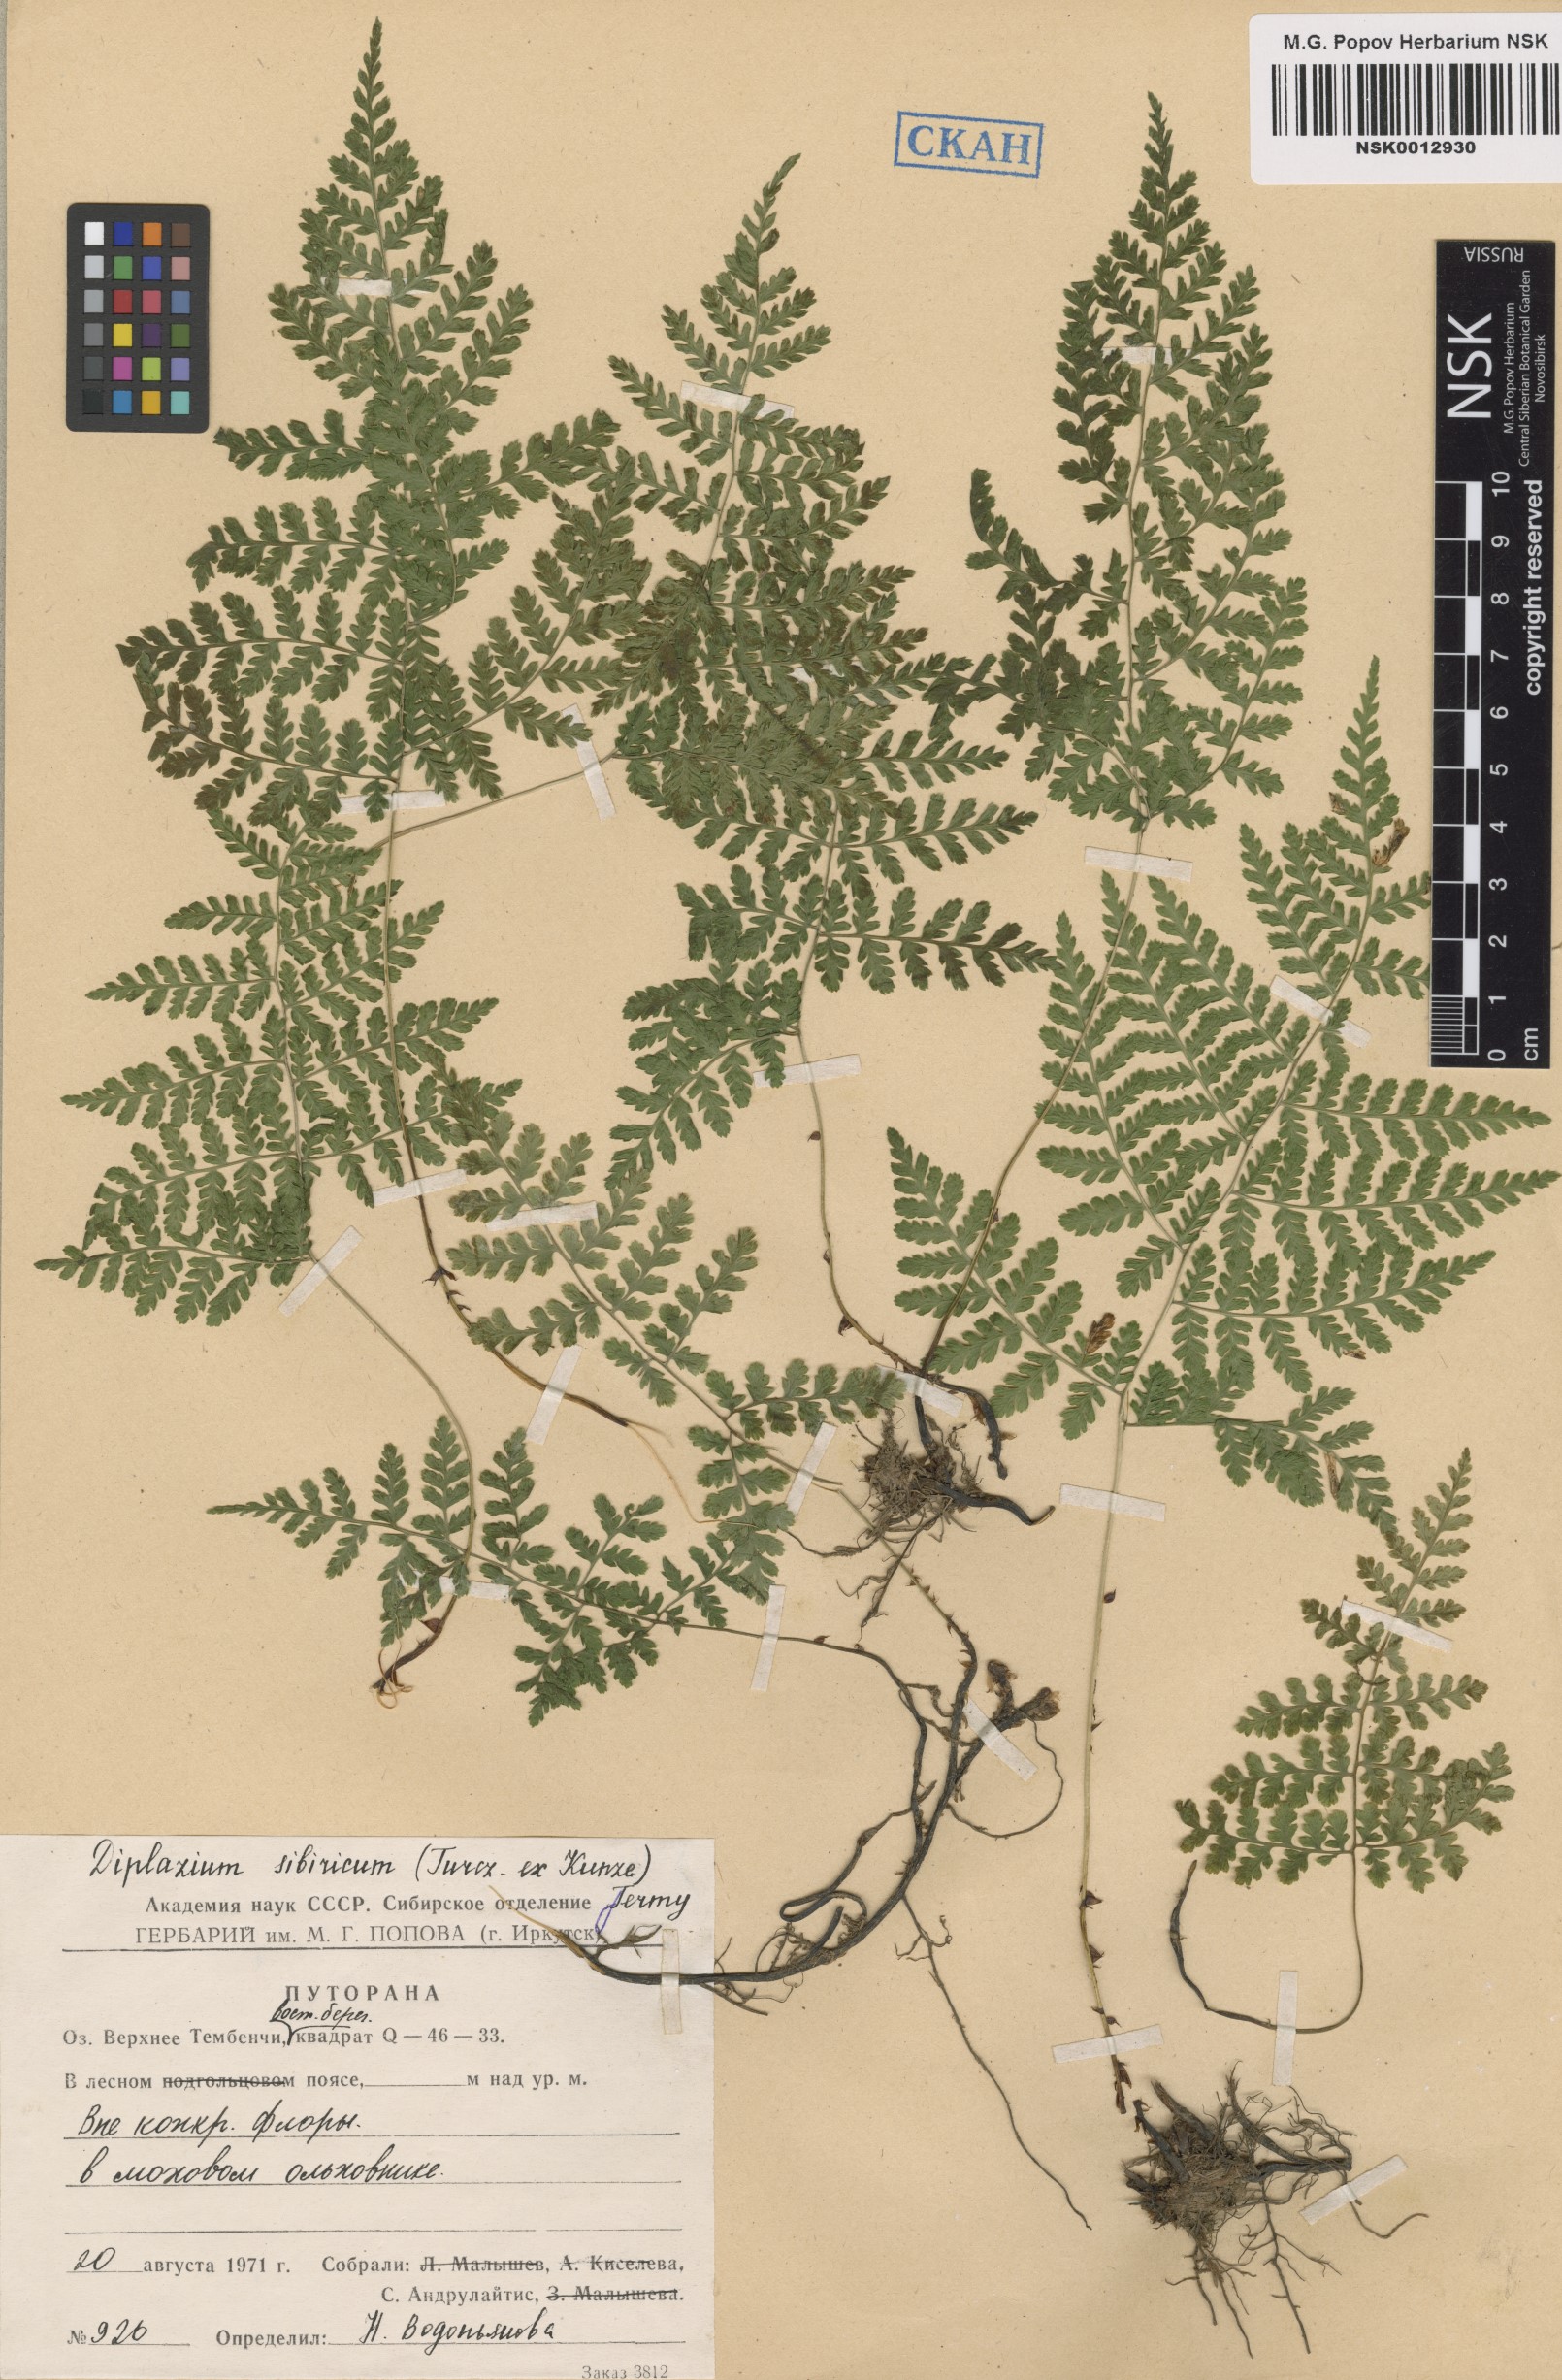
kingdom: Plantae
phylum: Tracheophyta
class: Polypodiopsida
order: Polypodiales
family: Athyriaceae
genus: Diplazium
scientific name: Diplazium sibiricum
